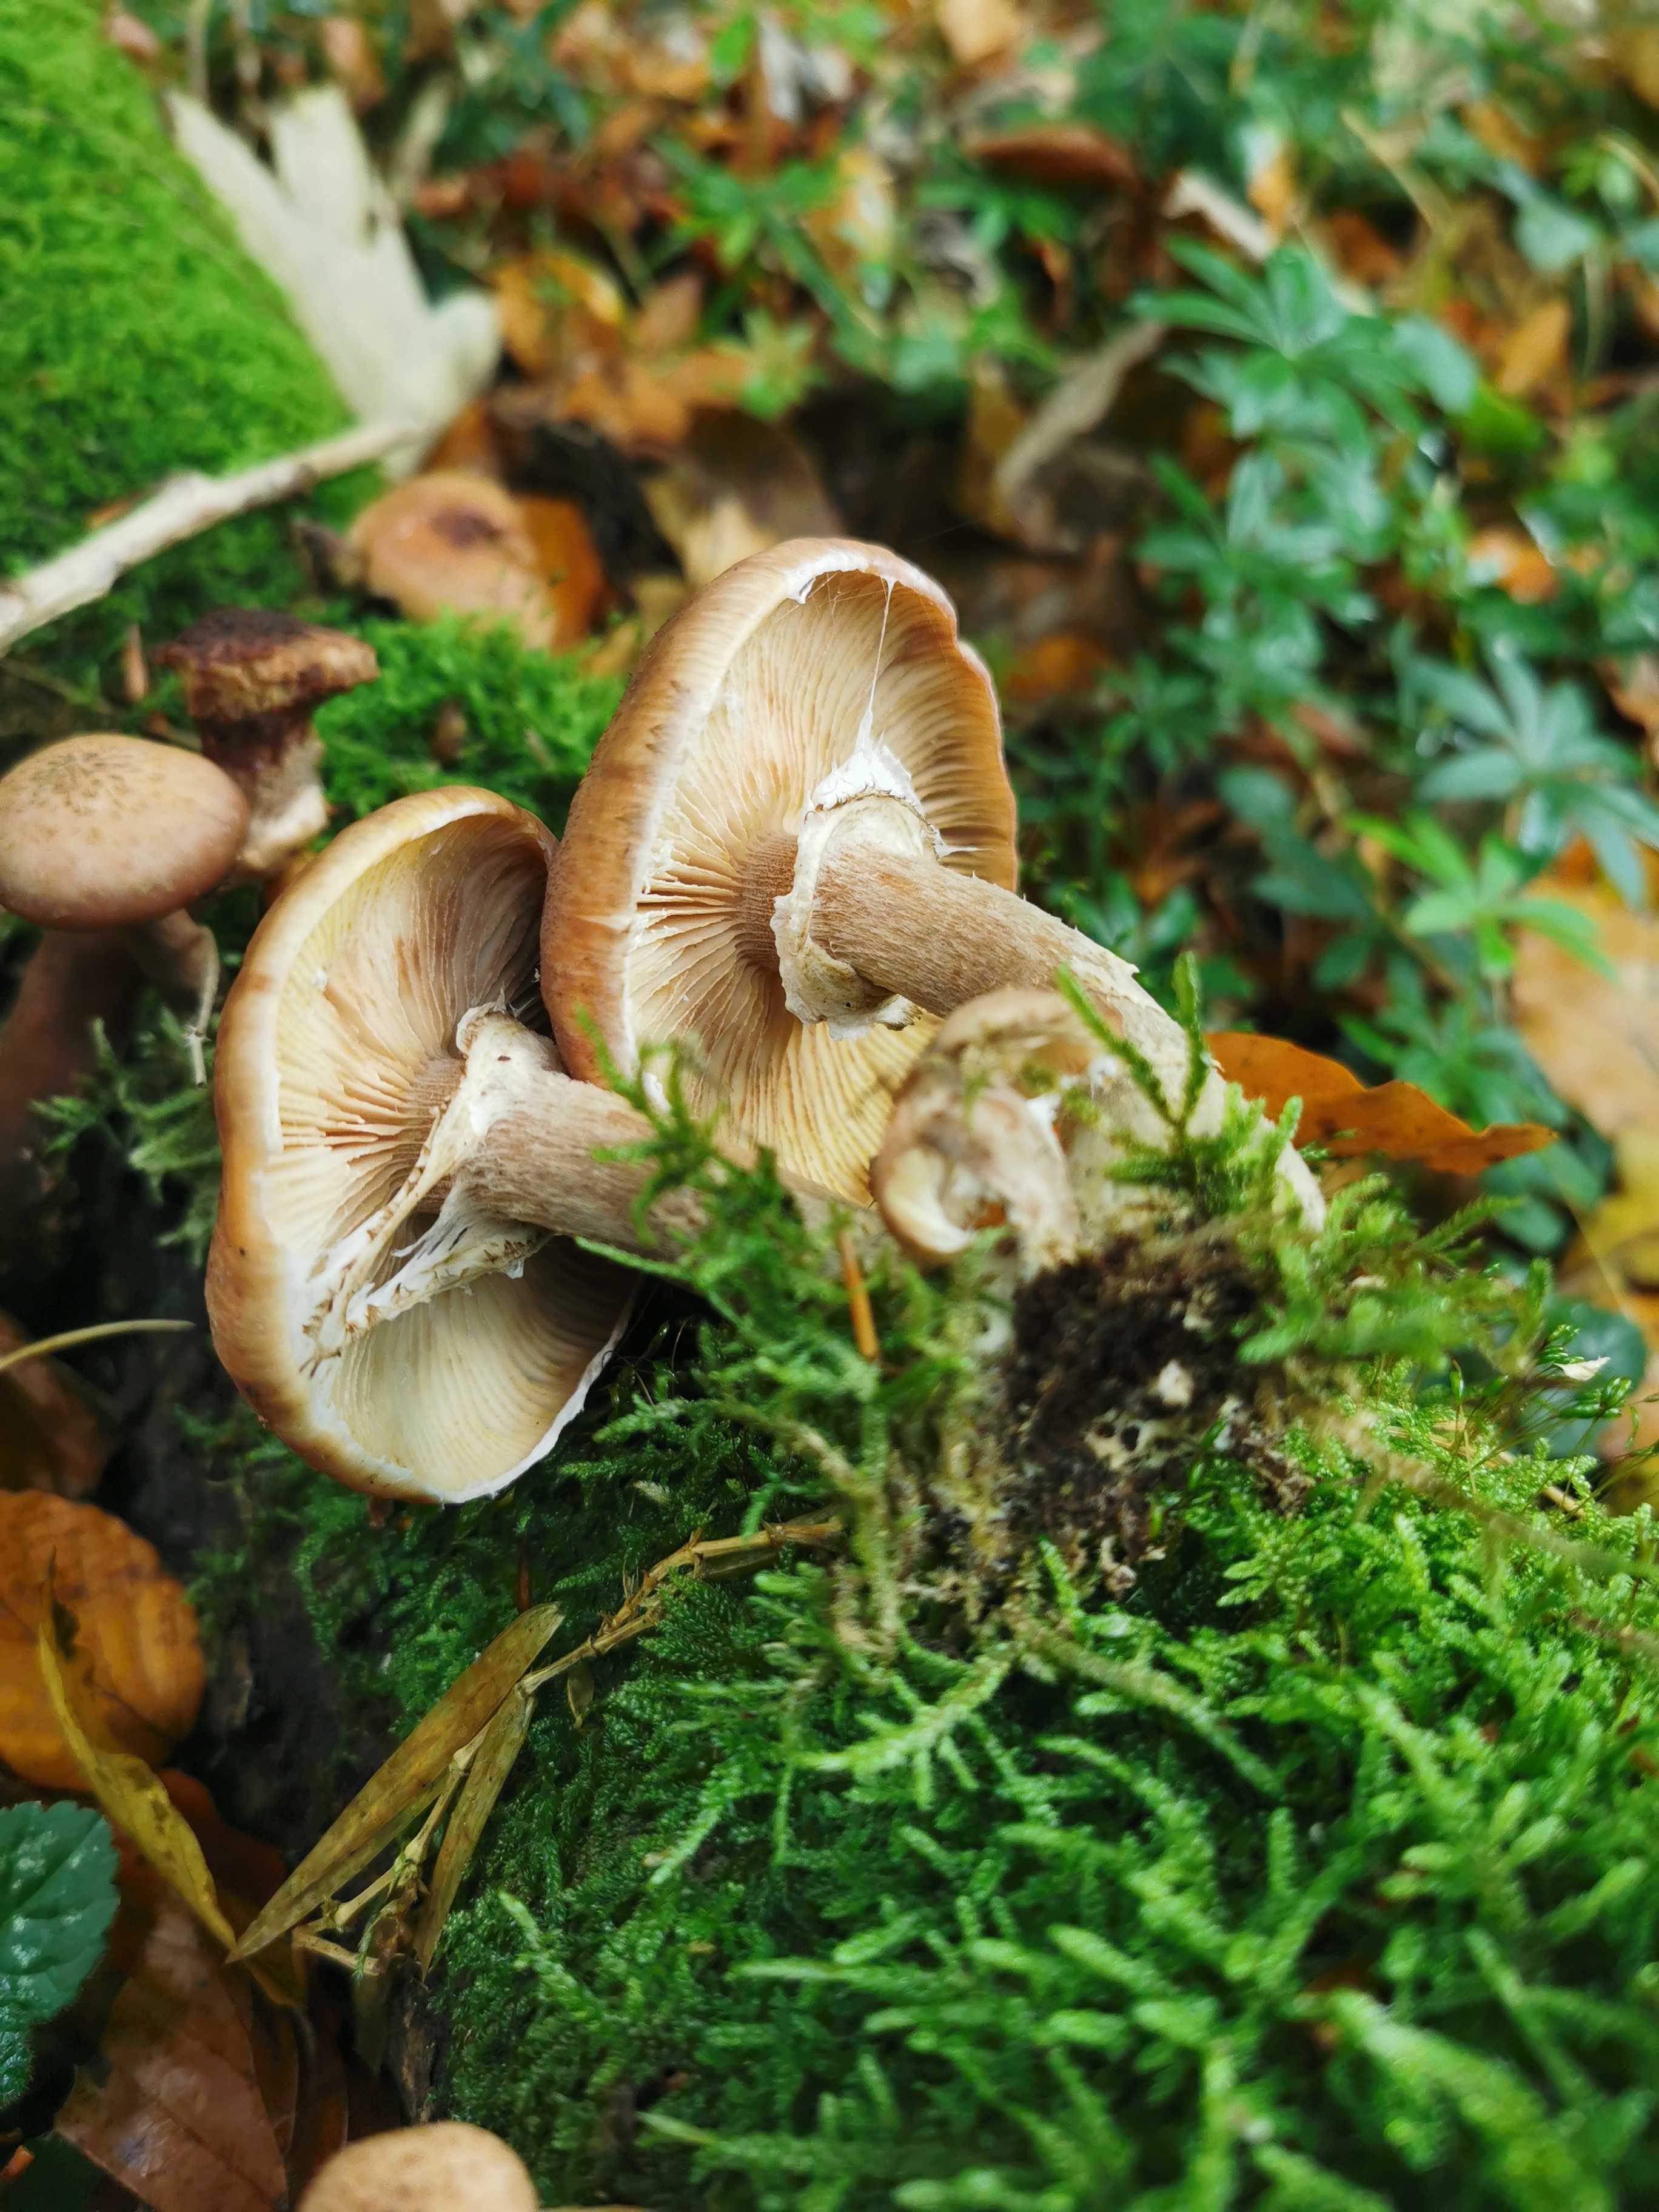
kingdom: Fungi
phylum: Basidiomycota
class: Agaricomycetes
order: Agaricales
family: Physalacriaceae
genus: Armillaria
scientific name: Armillaria lutea
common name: køllestokket honningsvamp
